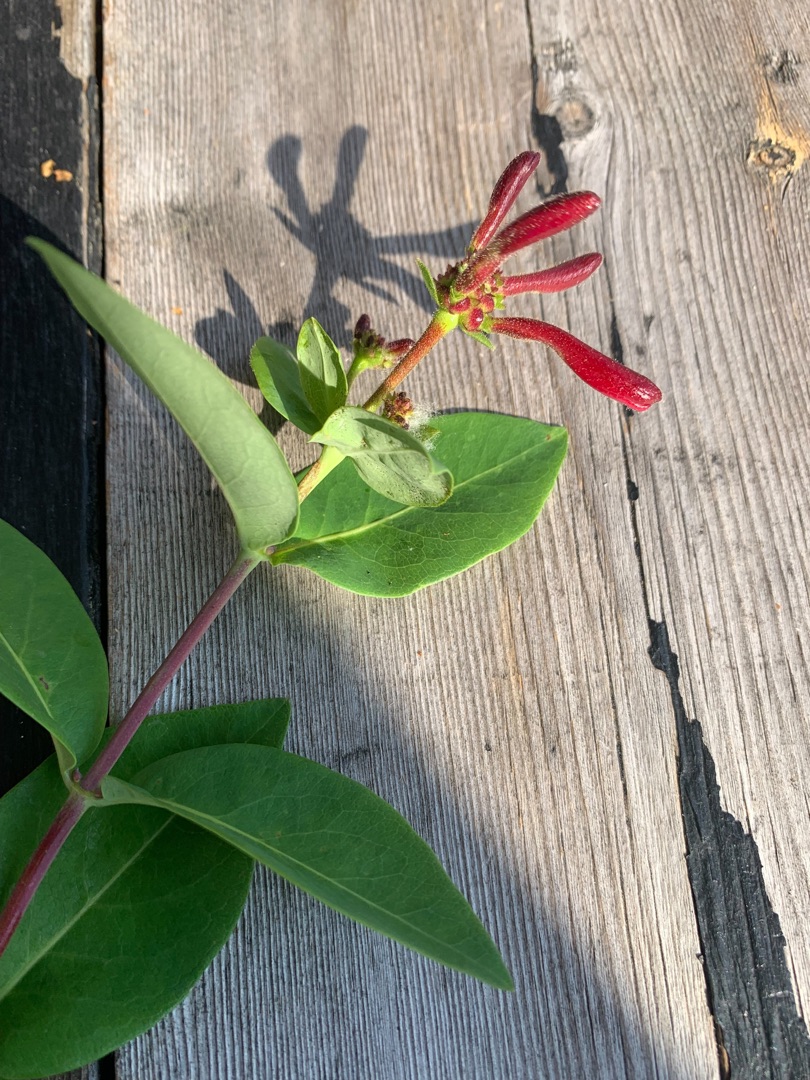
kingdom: Plantae
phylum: Tracheophyta
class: Magnoliopsida
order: Dipsacales
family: Caprifoliaceae
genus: Lonicera
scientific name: Lonicera periclymenum
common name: Almindelig gedeblad
